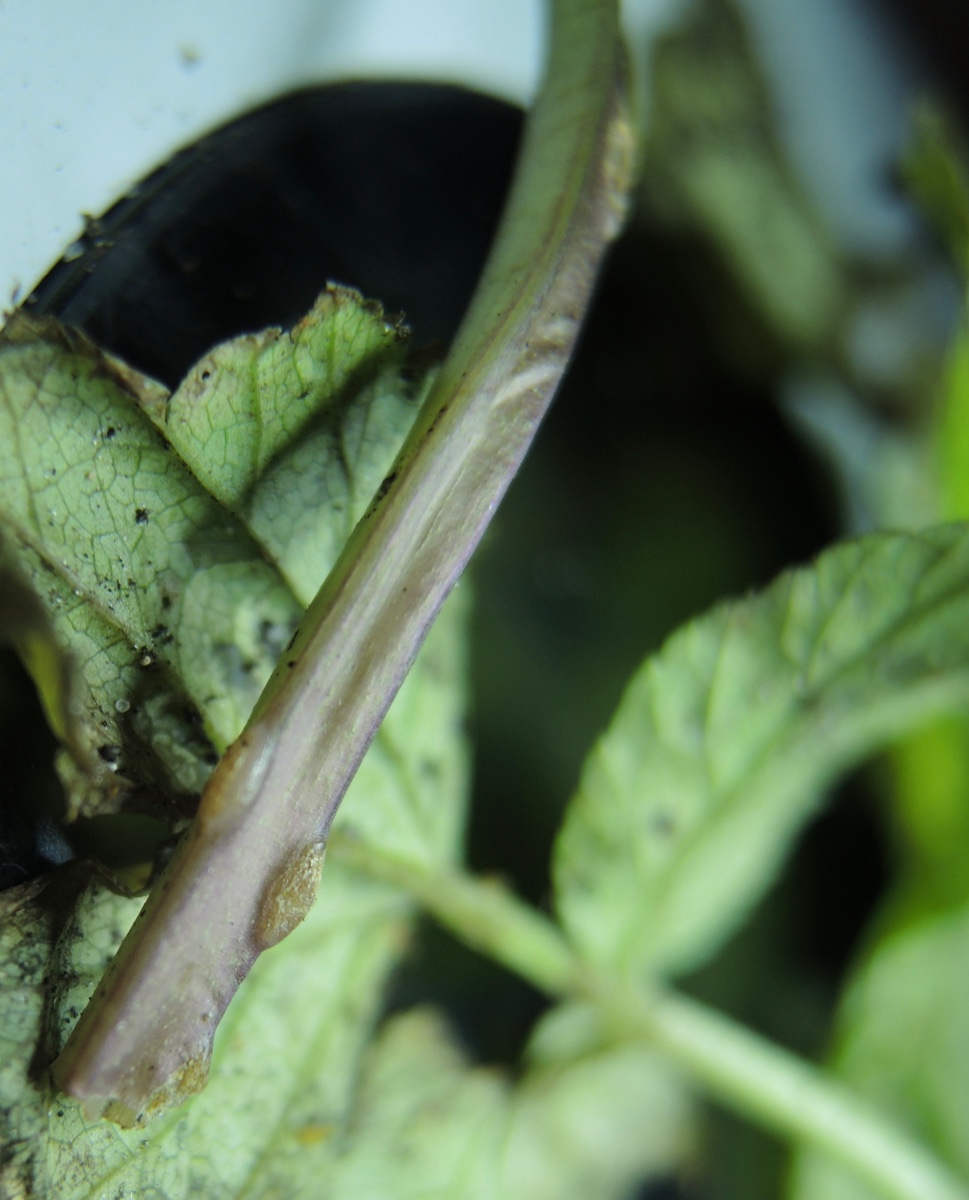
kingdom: Fungi
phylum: Ascomycota
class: Taphrinomycetes
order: Taphrinales
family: Taphrinaceae
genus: Protomyces
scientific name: Protomyces macrosporus
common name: skvalderkål-vablesæk
